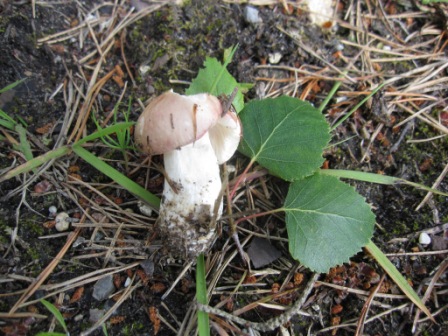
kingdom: Fungi
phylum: Basidiomycota
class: Agaricomycetes
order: Russulales
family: Russulaceae
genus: Russula
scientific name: Russula depallens
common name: falmende skørhat
